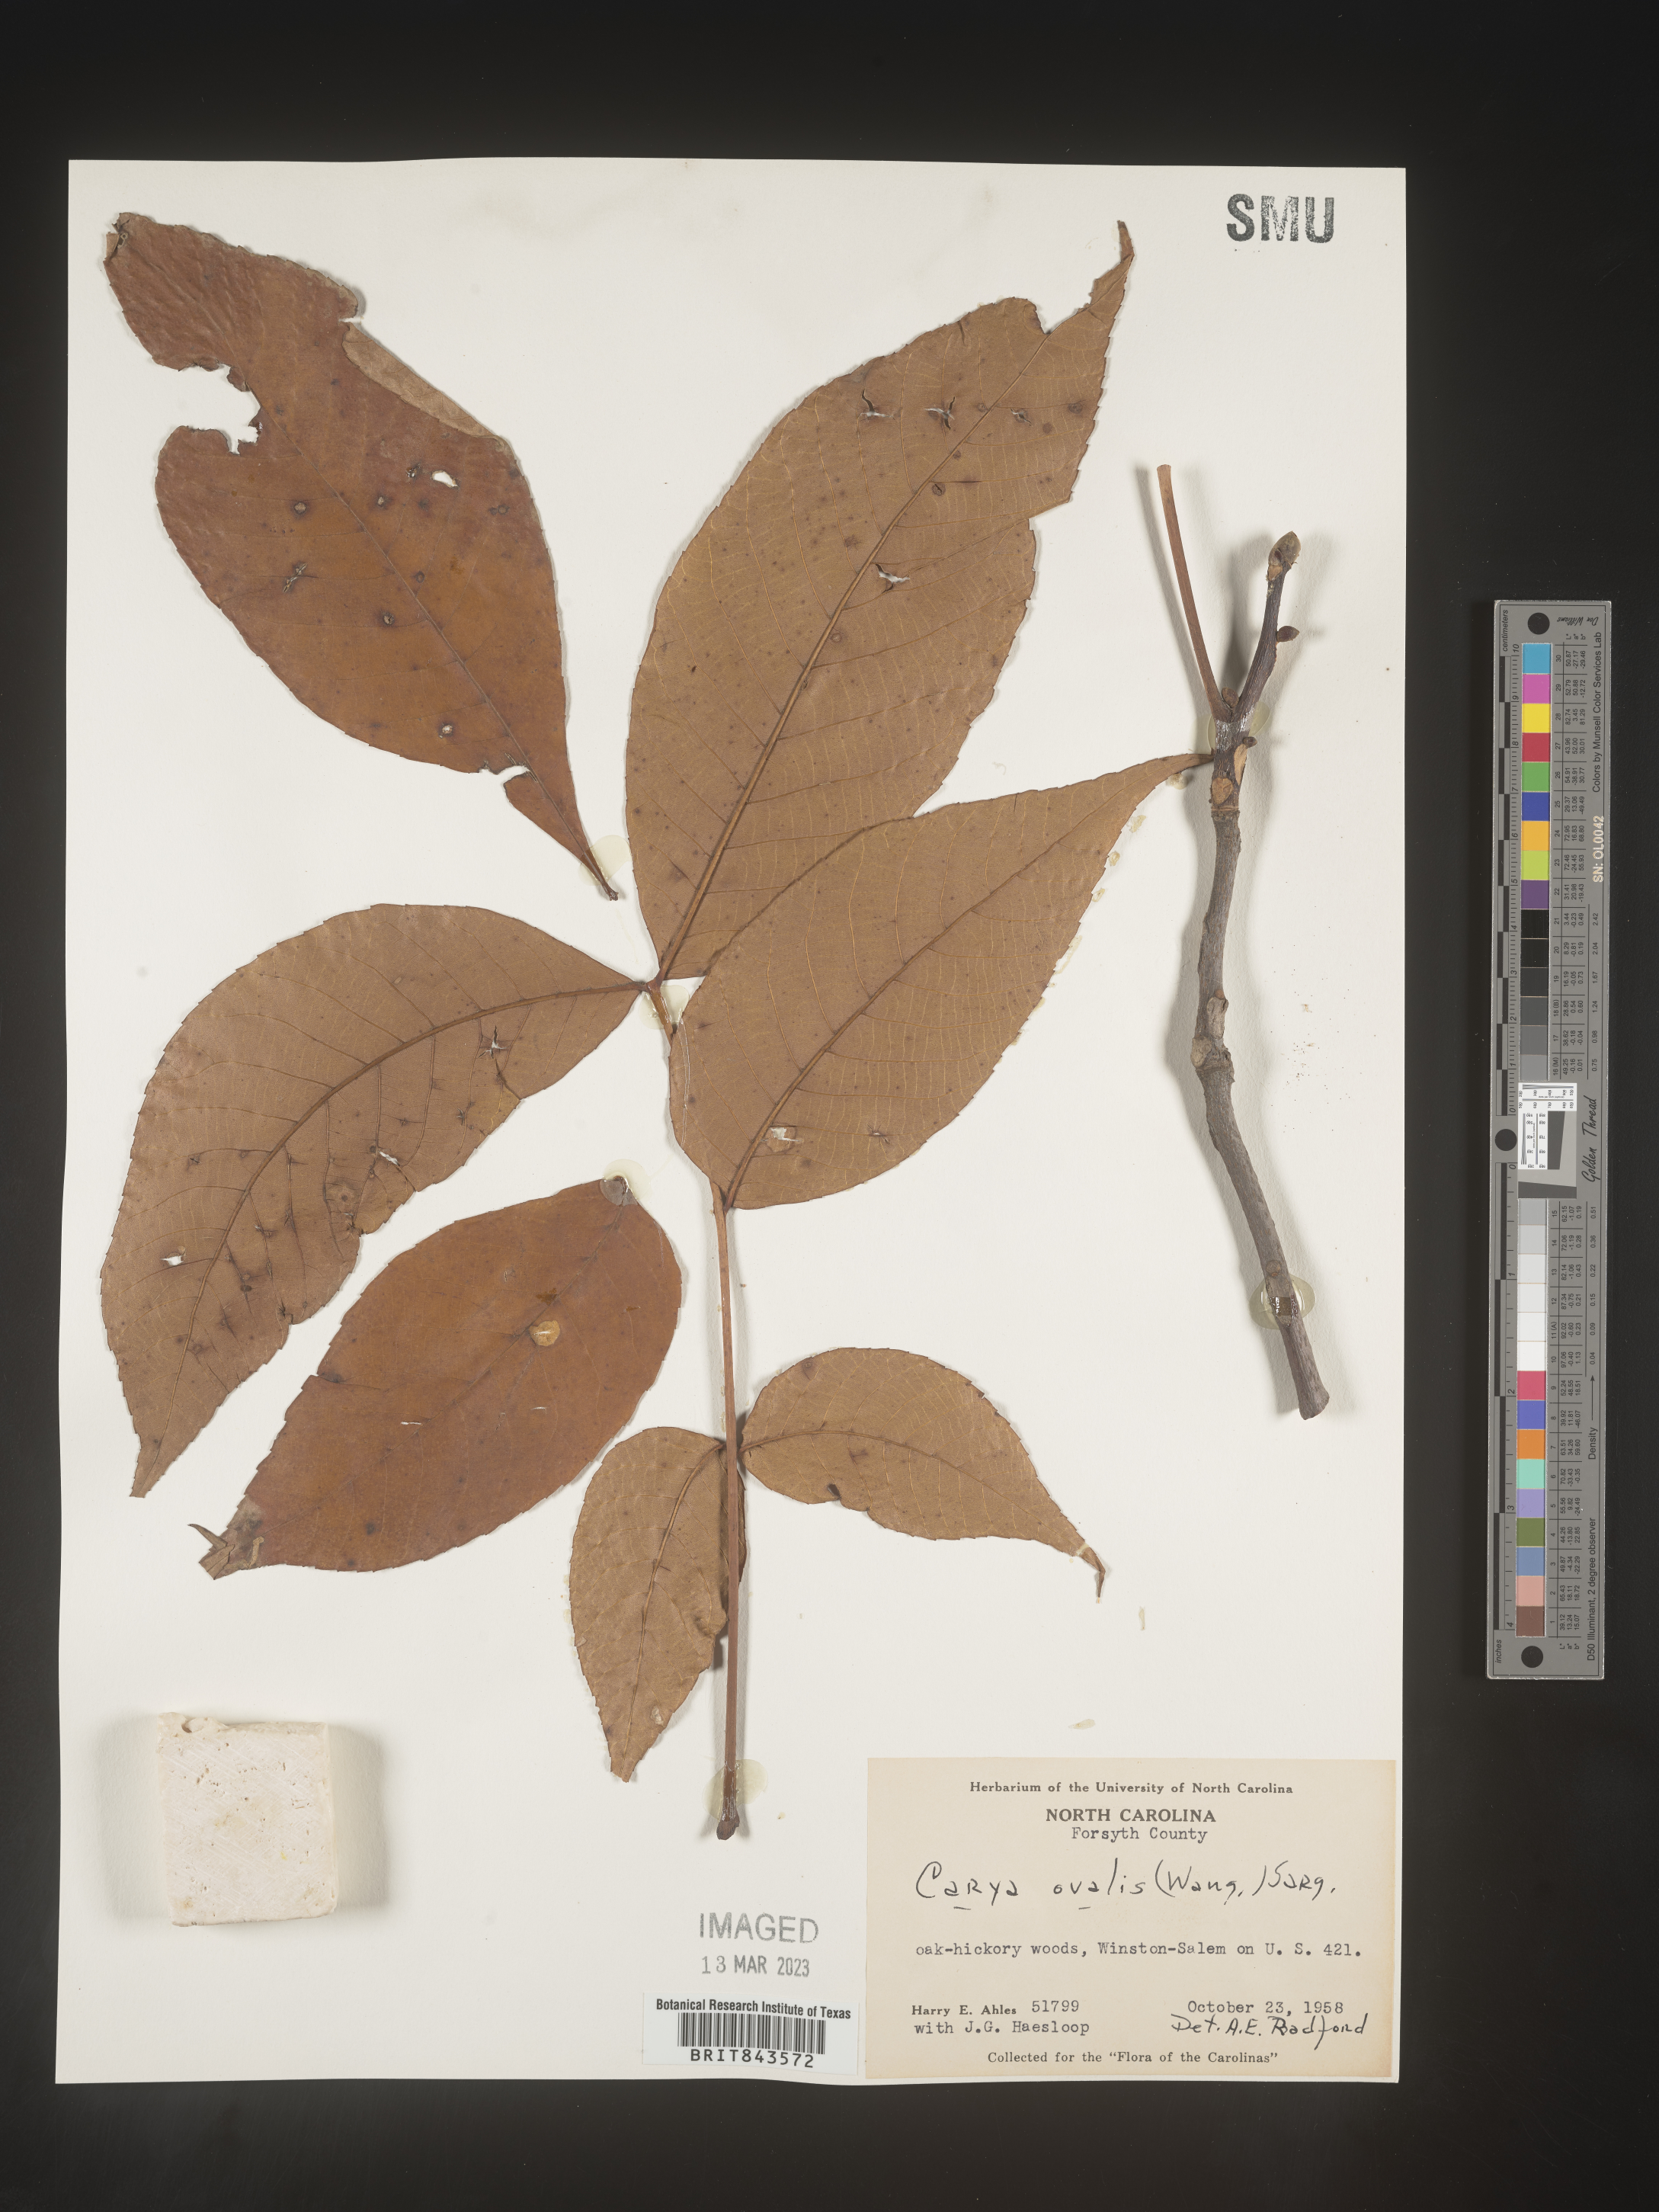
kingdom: Plantae
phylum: Tracheophyta
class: Magnoliopsida
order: Fagales
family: Juglandaceae
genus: Carya
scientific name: Carya ovalis
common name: False shagbark
